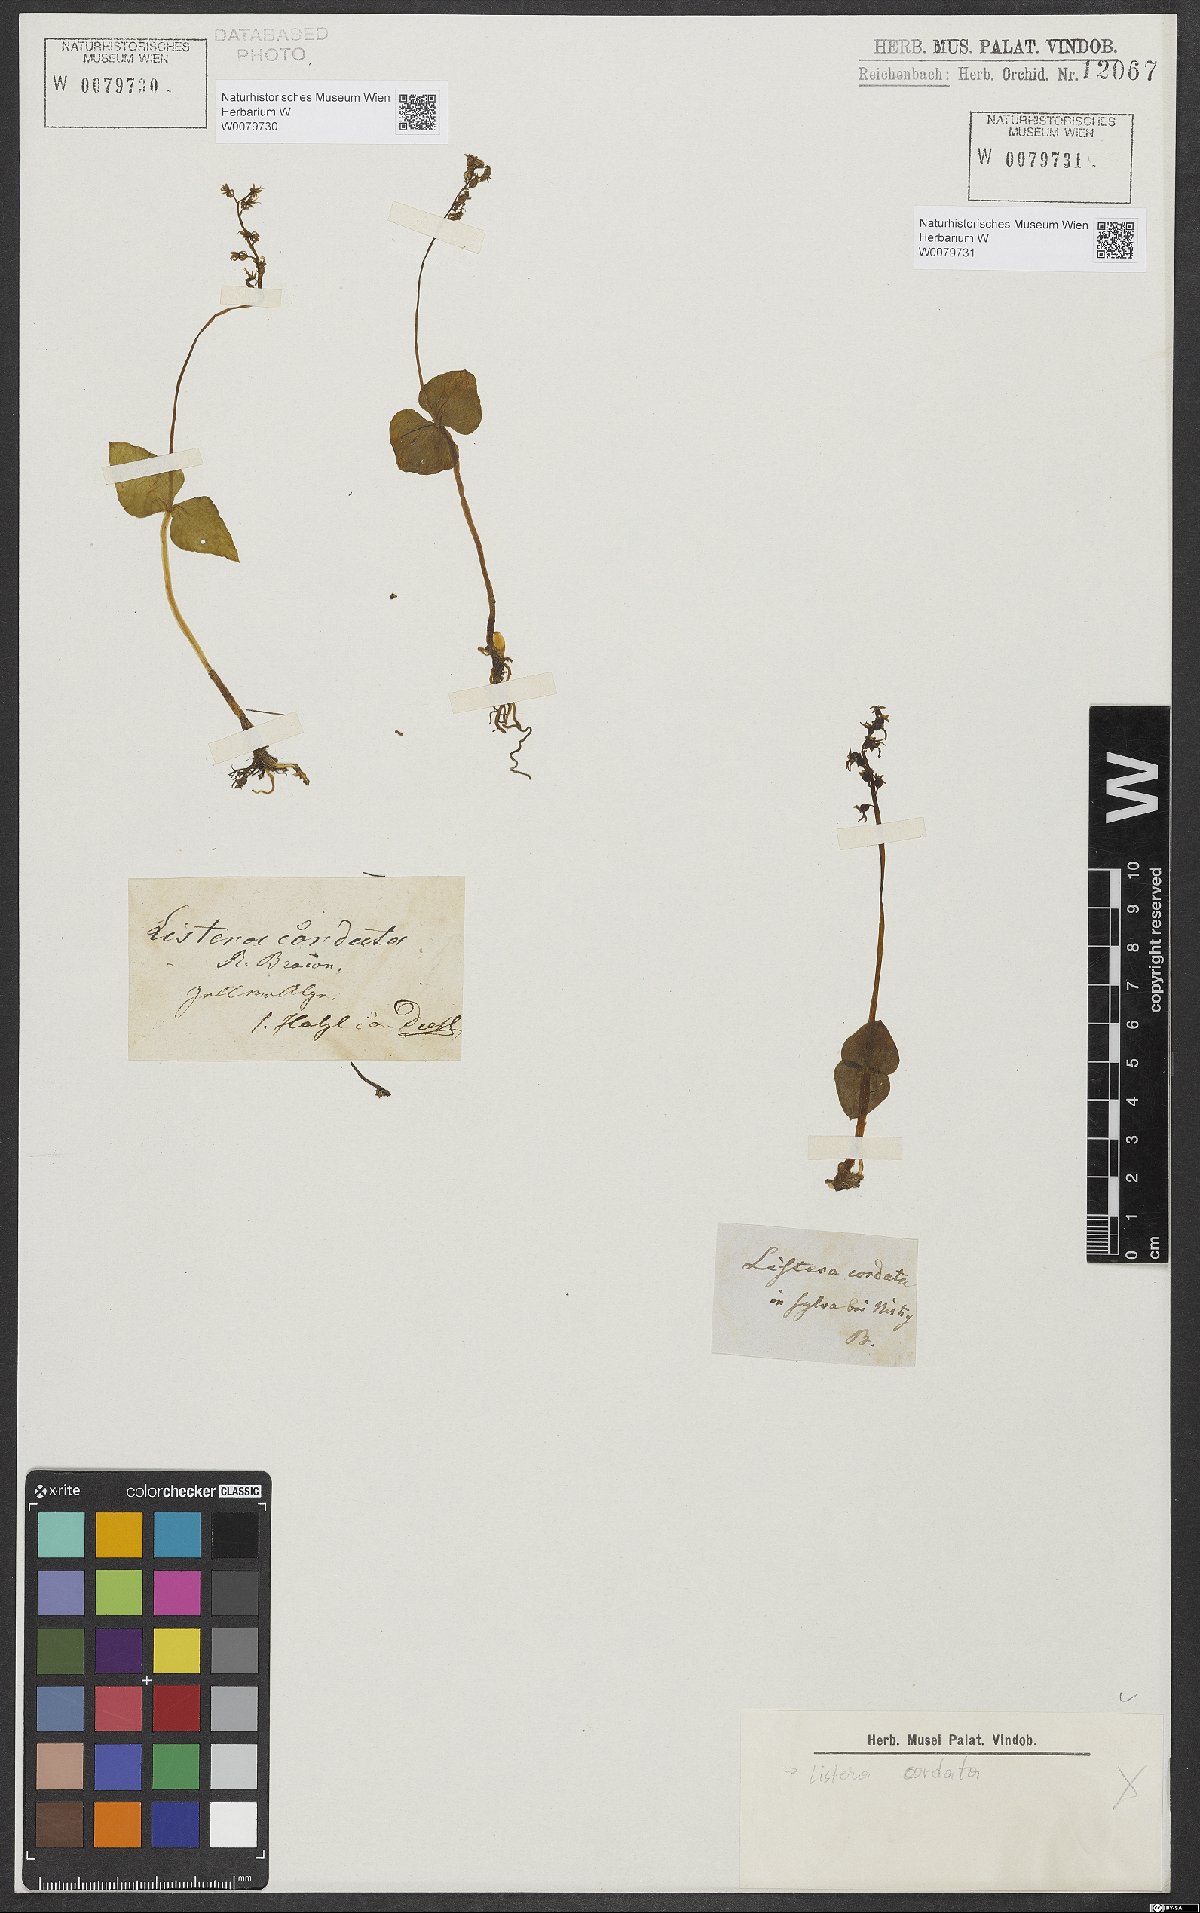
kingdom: Plantae
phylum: Tracheophyta
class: Liliopsida
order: Asparagales
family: Orchidaceae
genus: Neottia
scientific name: Neottia cordata
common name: Lesser twayblade
